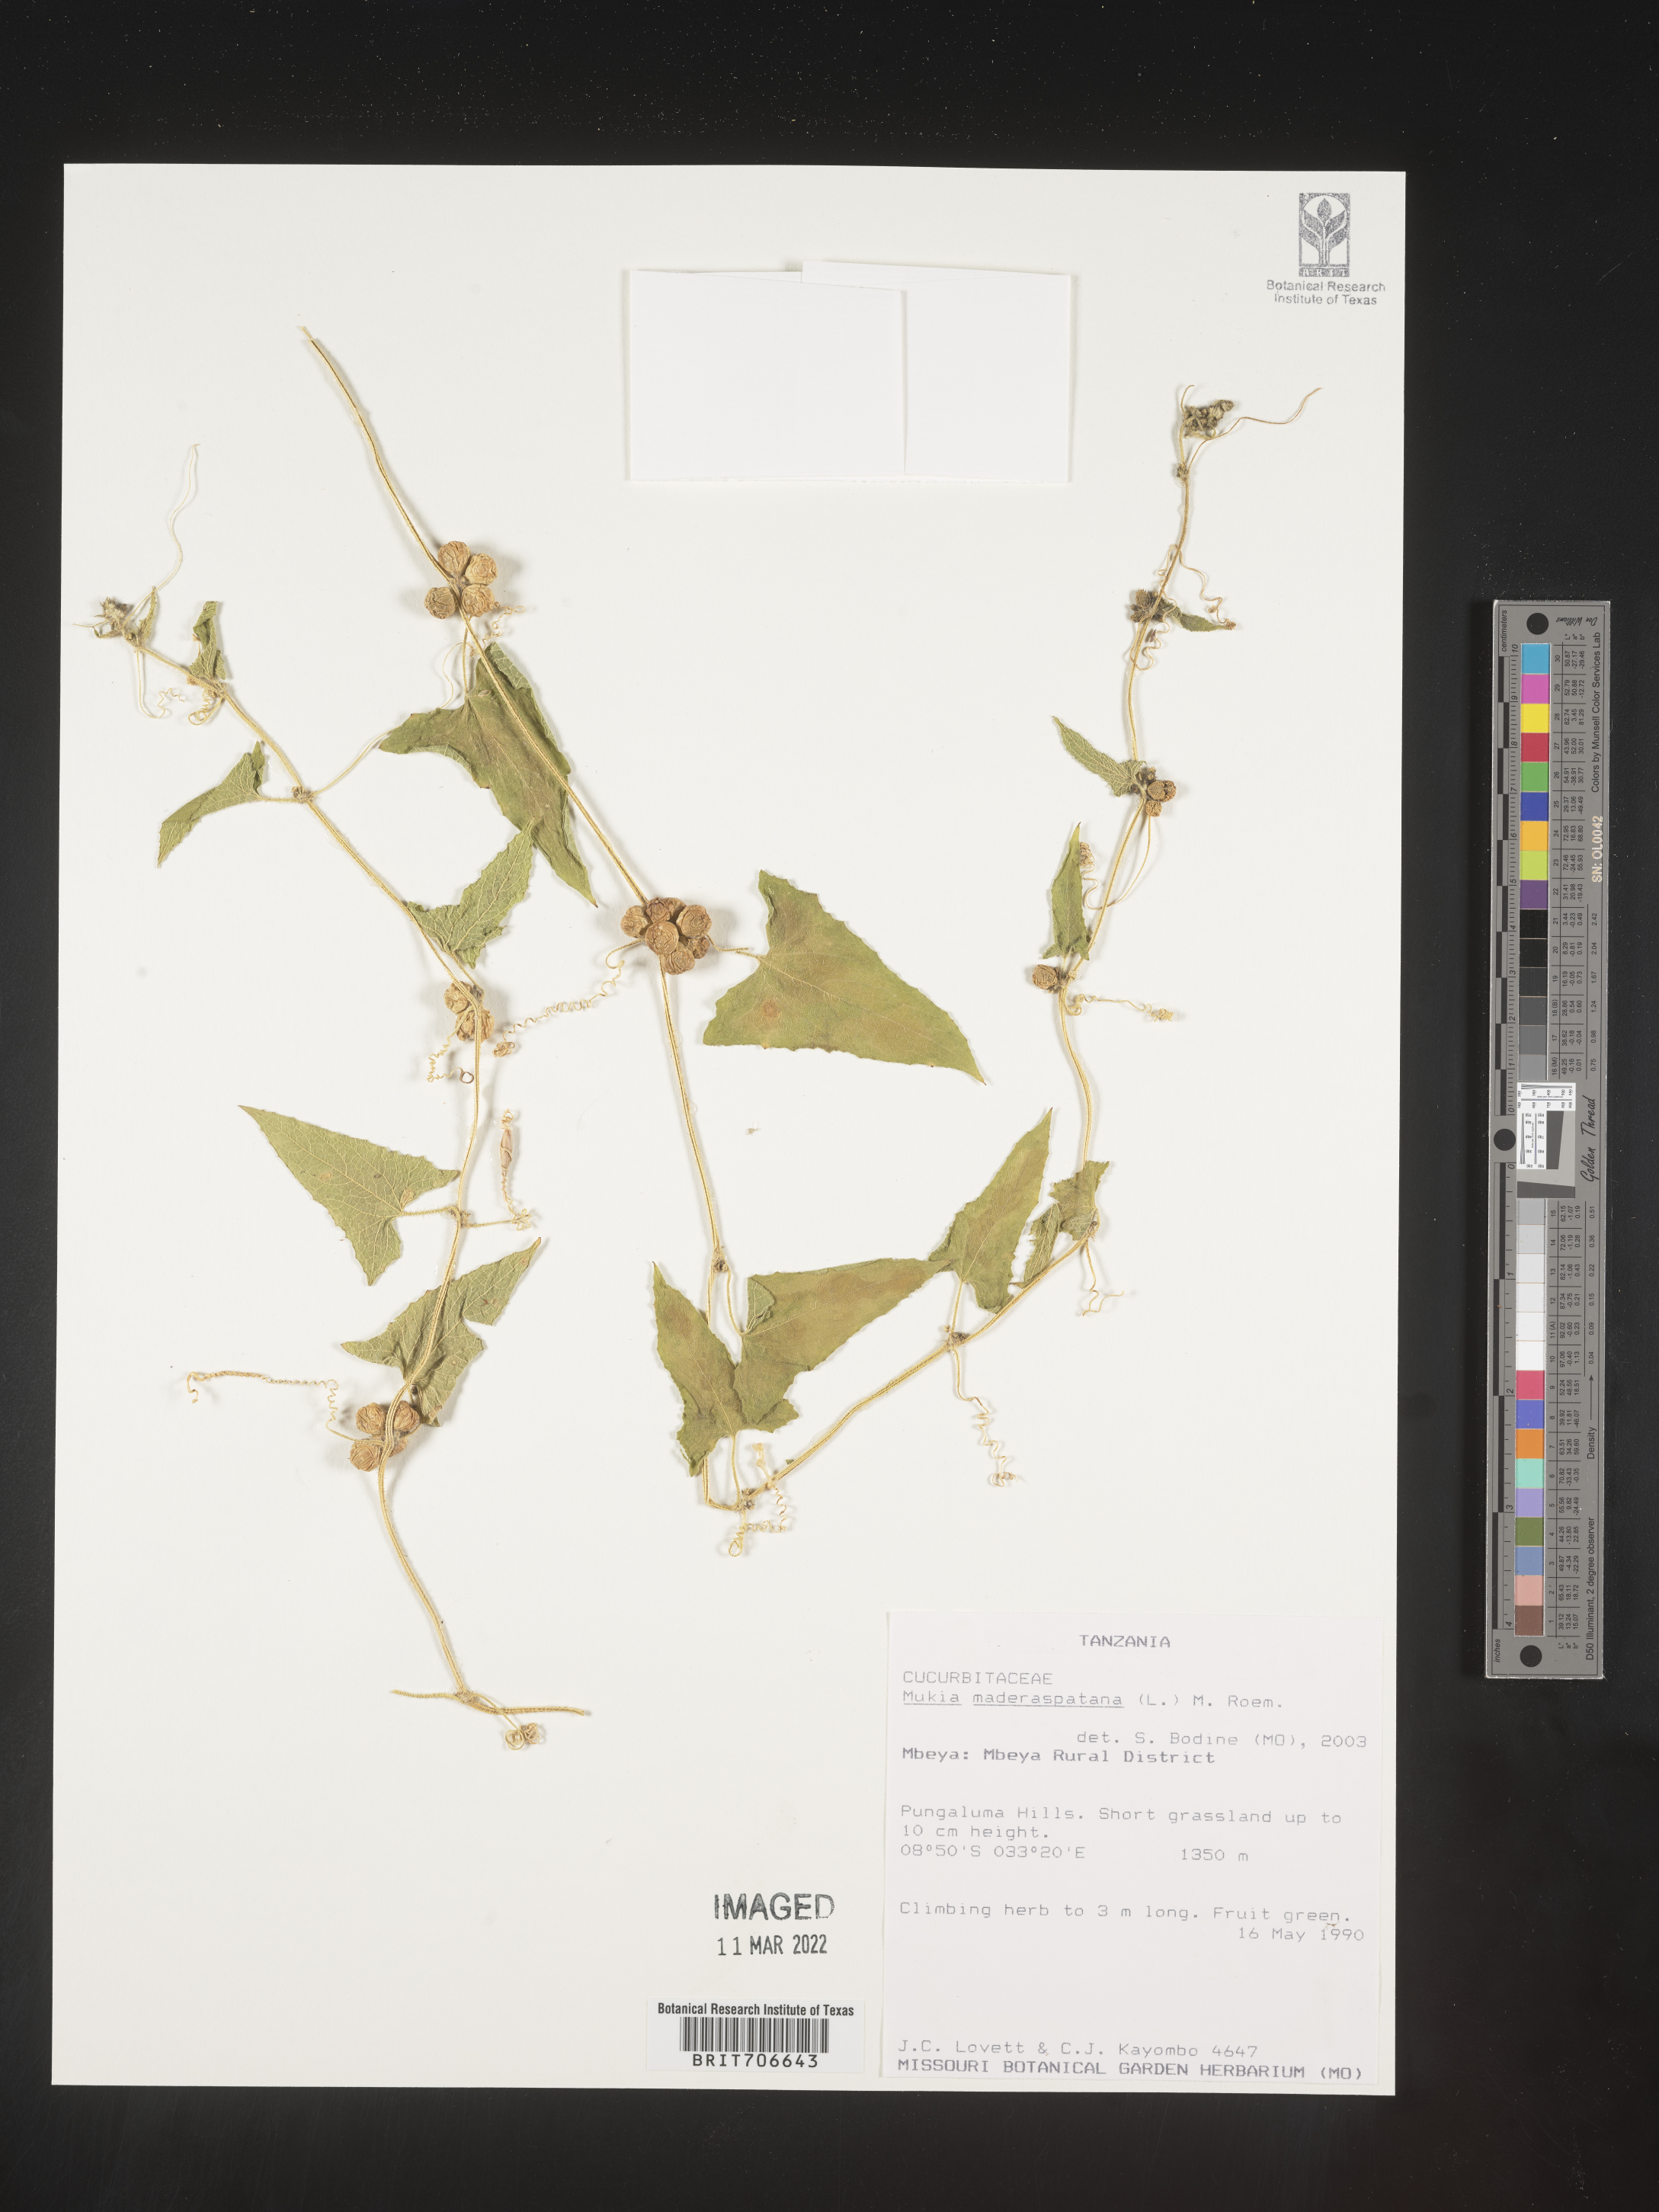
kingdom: Animalia
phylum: Arthropoda
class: Insecta
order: Lepidoptera
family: Crambidae
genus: Mukia
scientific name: Mukia
